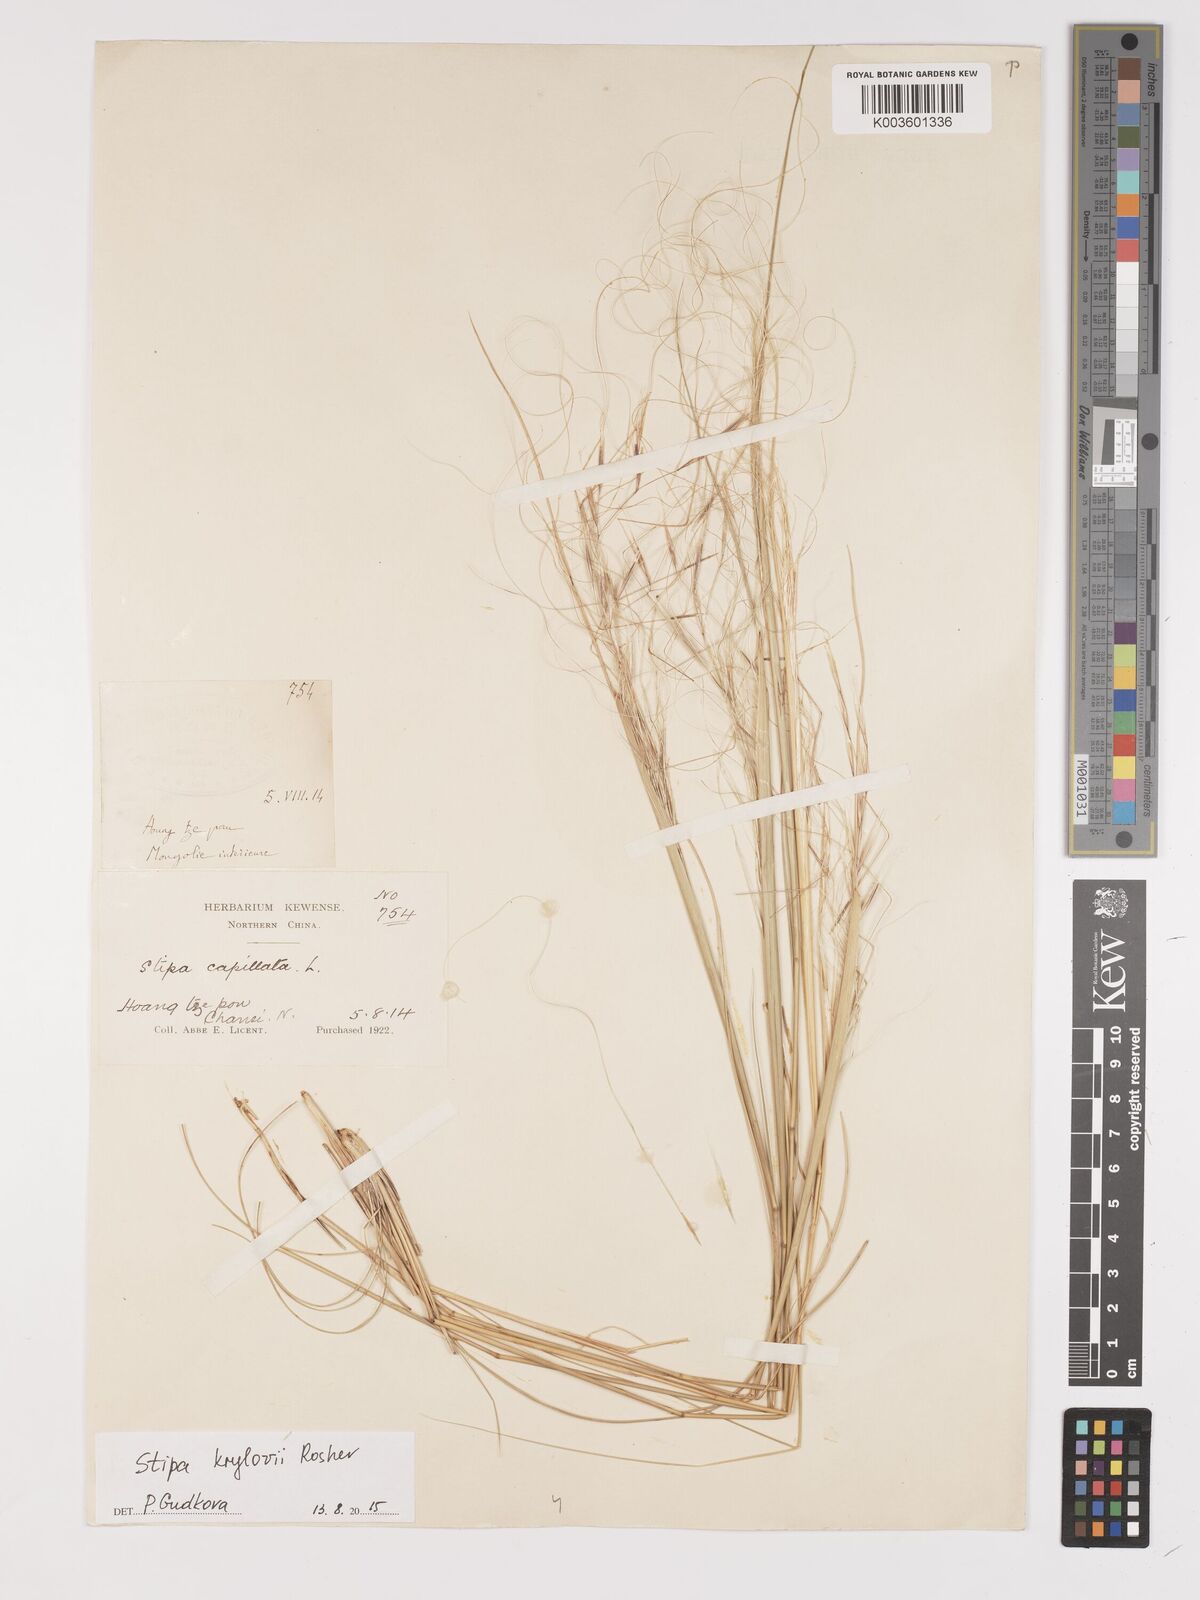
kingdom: Plantae
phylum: Tracheophyta
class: Liliopsida
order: Poales
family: Poaceae
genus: Stipa
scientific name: Stipa krylovii
